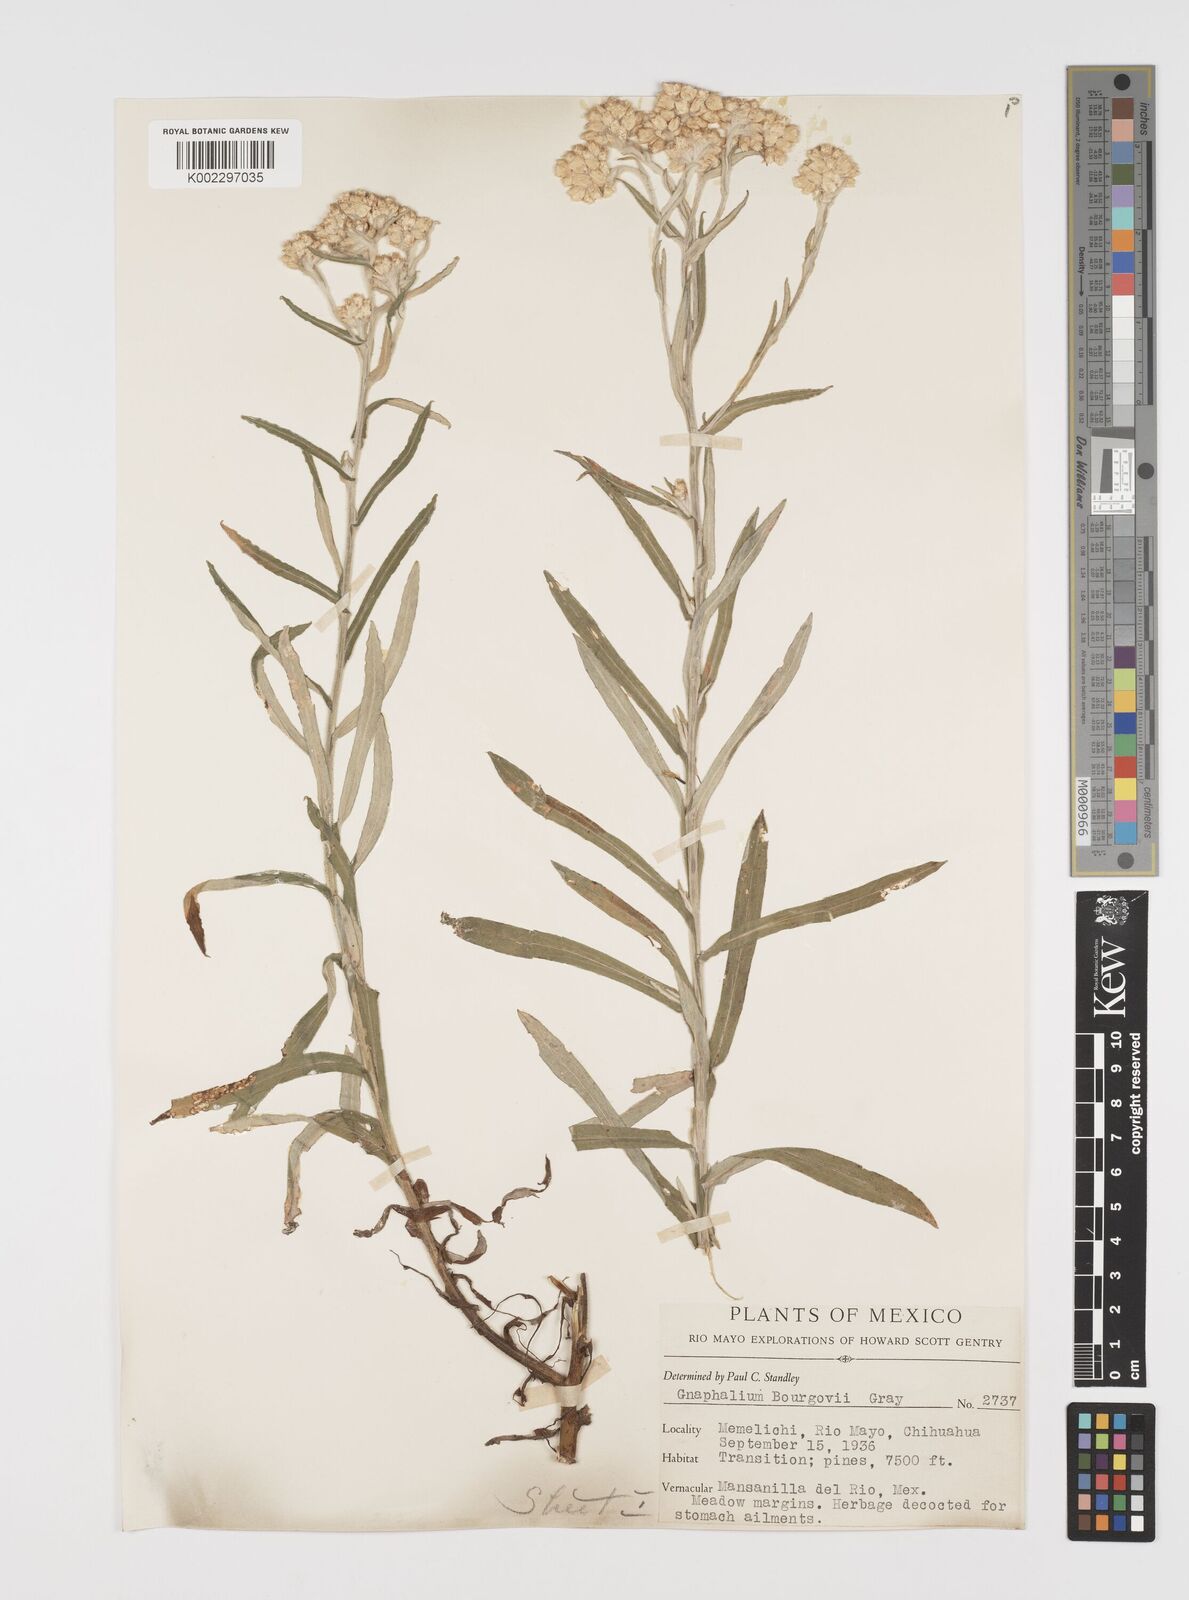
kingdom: Plantae
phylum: Tracheophyta
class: Magnoliopsida
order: Asterales
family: Asteraceae
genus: Pseudognaphalium
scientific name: Pseudognaphalium bourgovii
